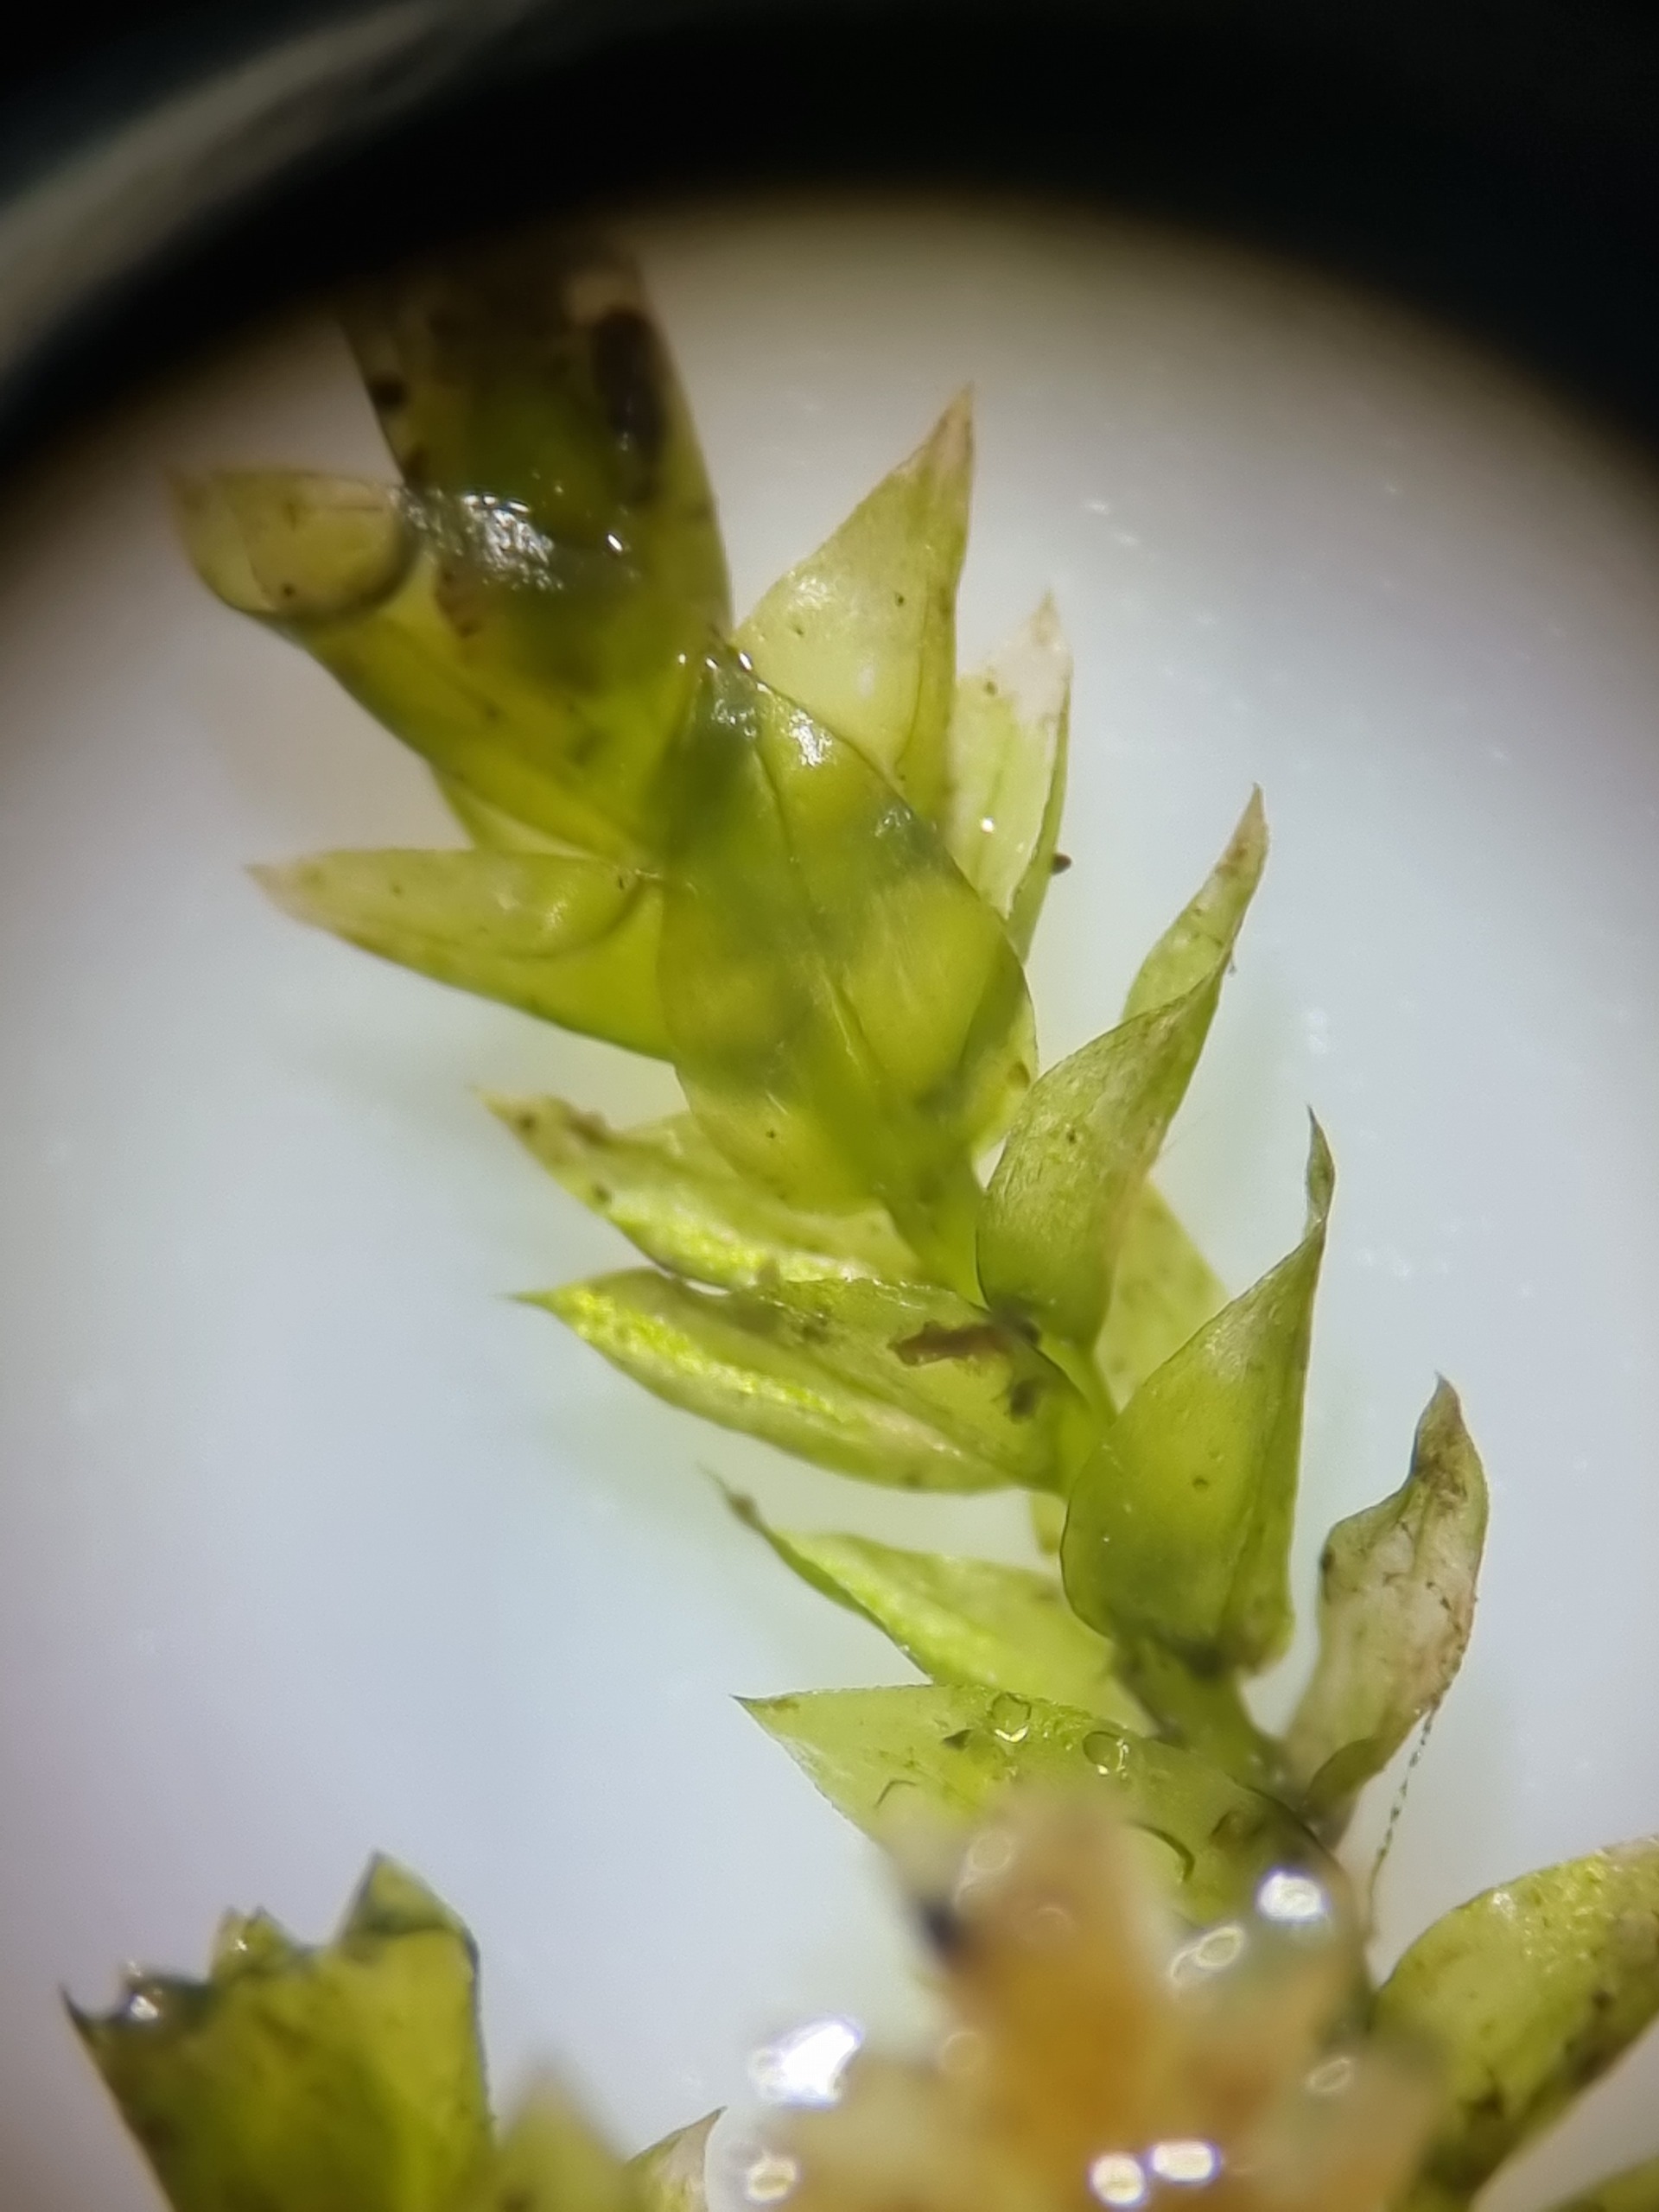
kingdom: Plantae
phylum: Bryophyta
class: Bryopsida
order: Hypnales
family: Brachytheciaceae
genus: Rhynchostegium
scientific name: Rhynchostegium riparioides
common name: Robust strømmos
